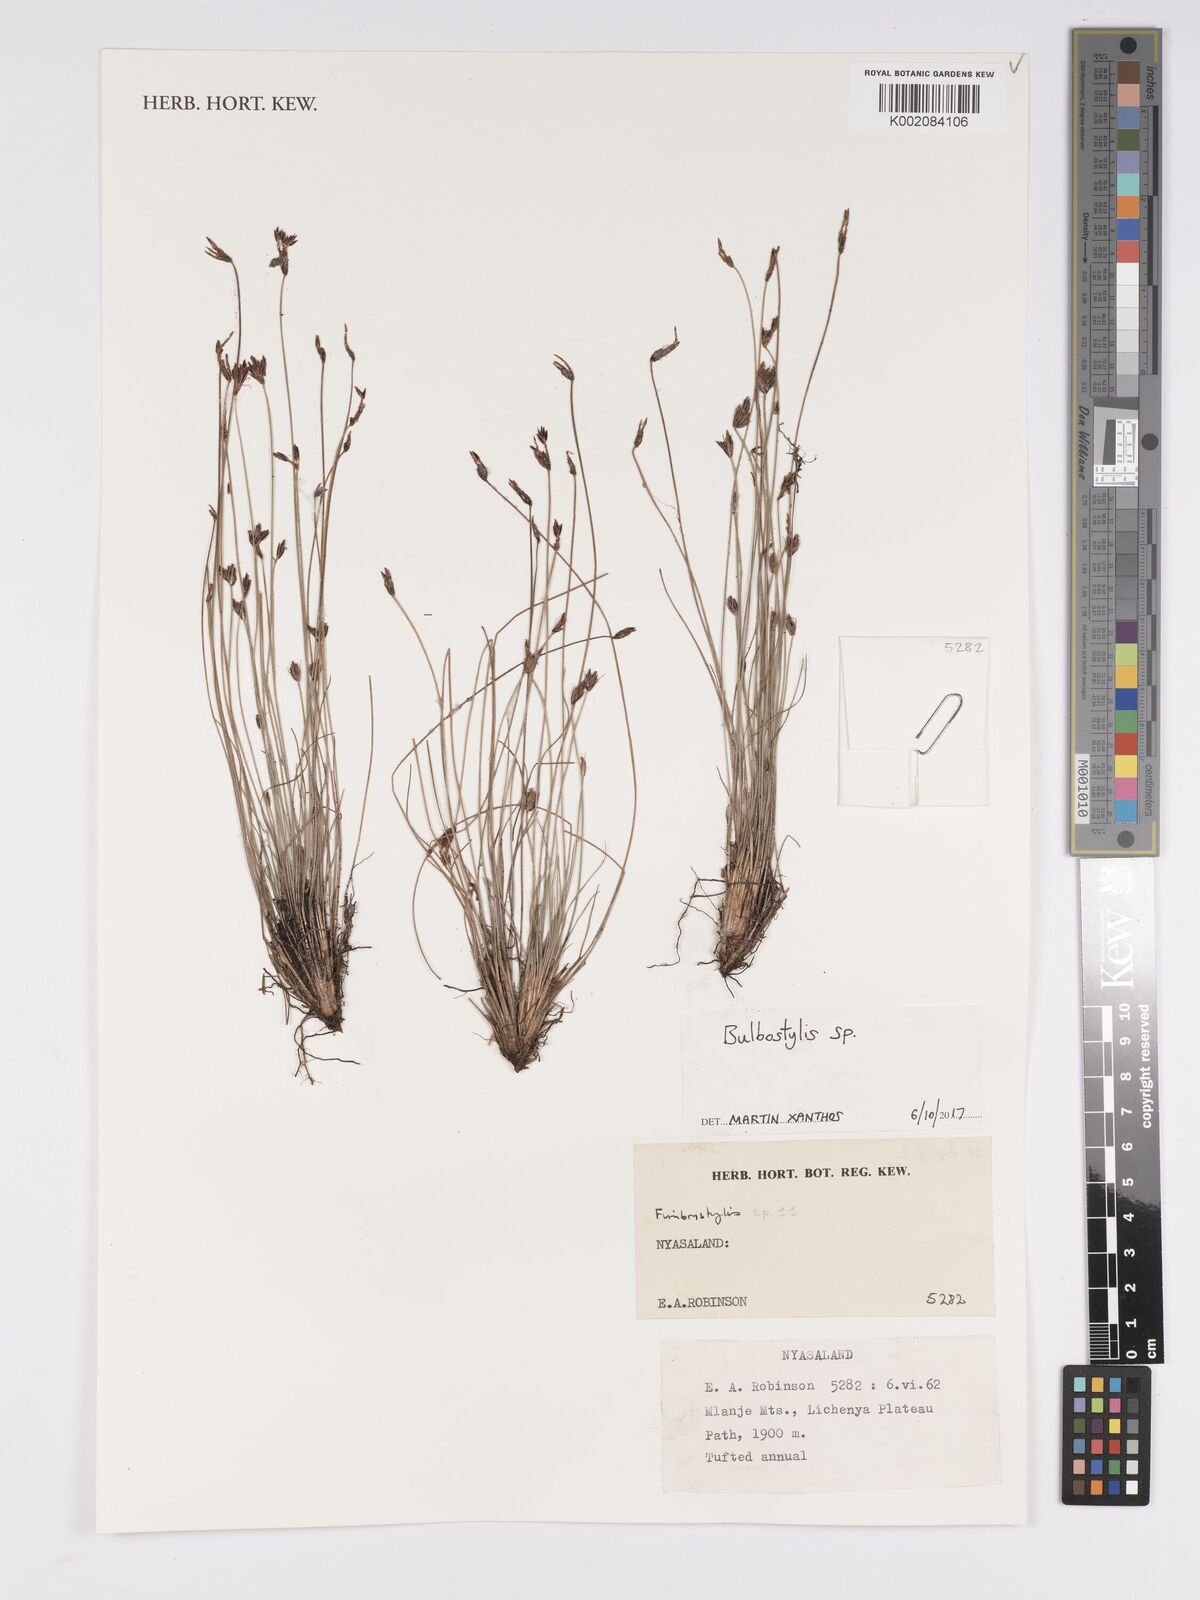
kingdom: Plantae
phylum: Tracheophyta
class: Liliopsida
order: Poales
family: Cyperaceae
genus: Bulbostylis
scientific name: Bulbostylis
